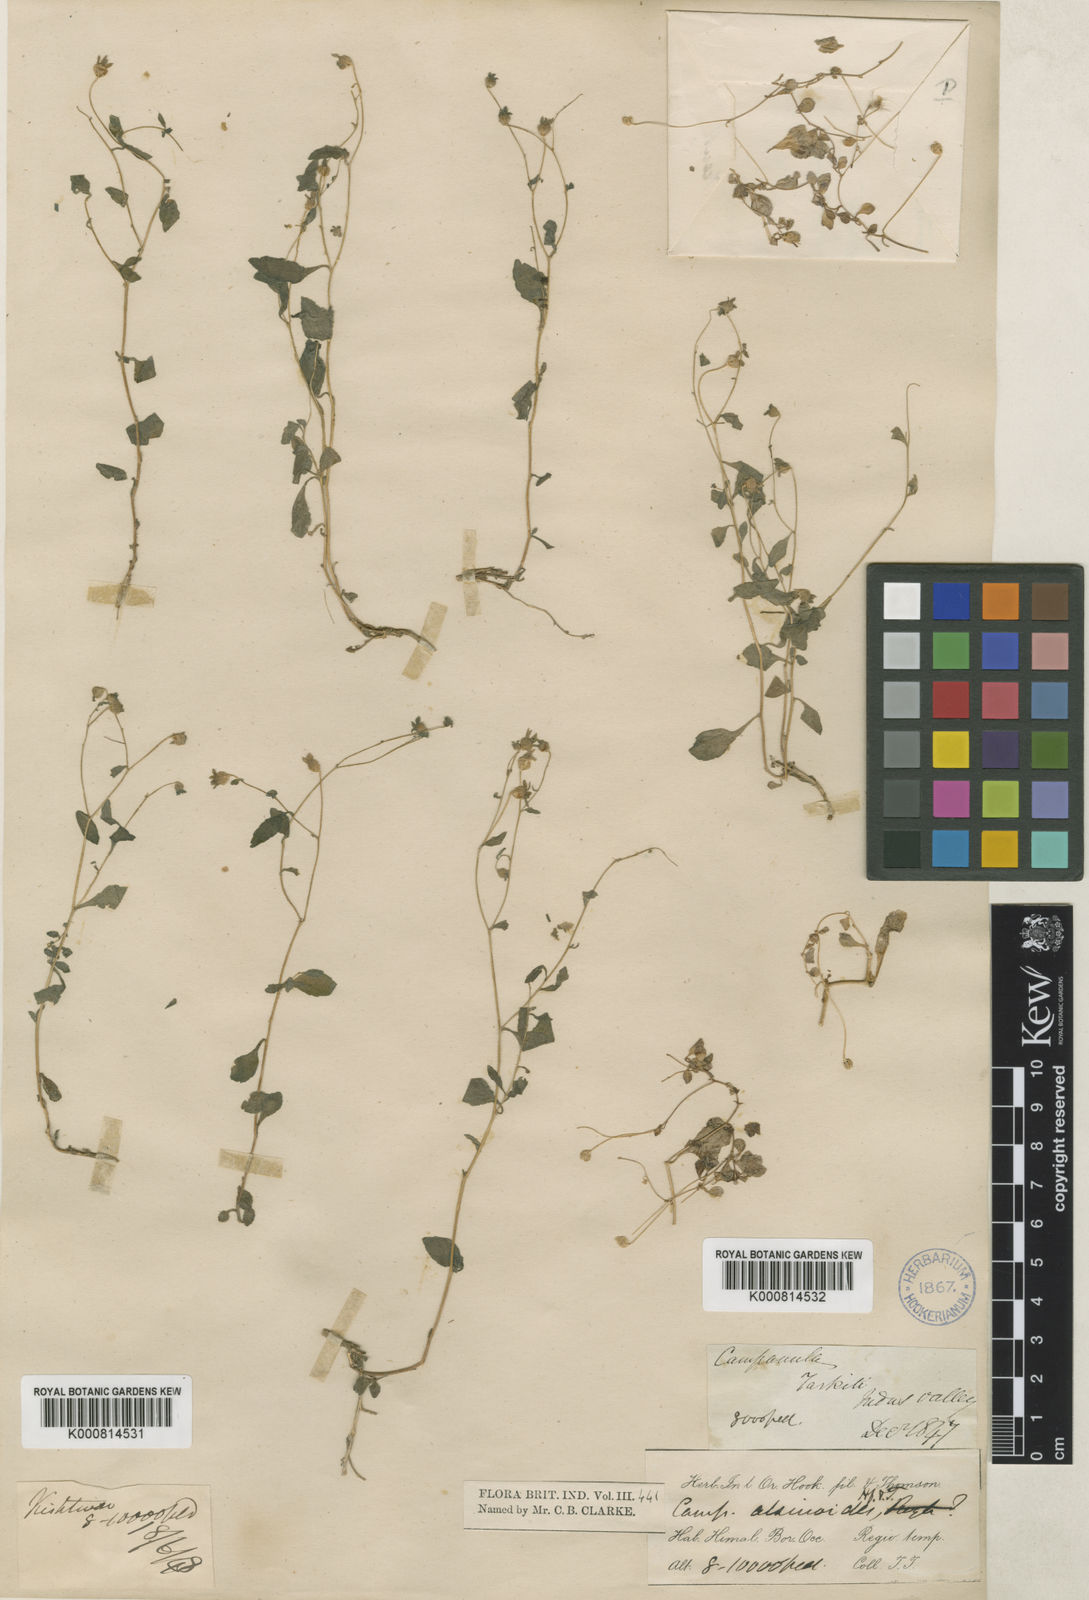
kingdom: Plantae
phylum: Tracheophyta
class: Magnoliopsida
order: Asterales
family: Campanulaceae
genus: Campanula
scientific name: Campanula alsinoides
